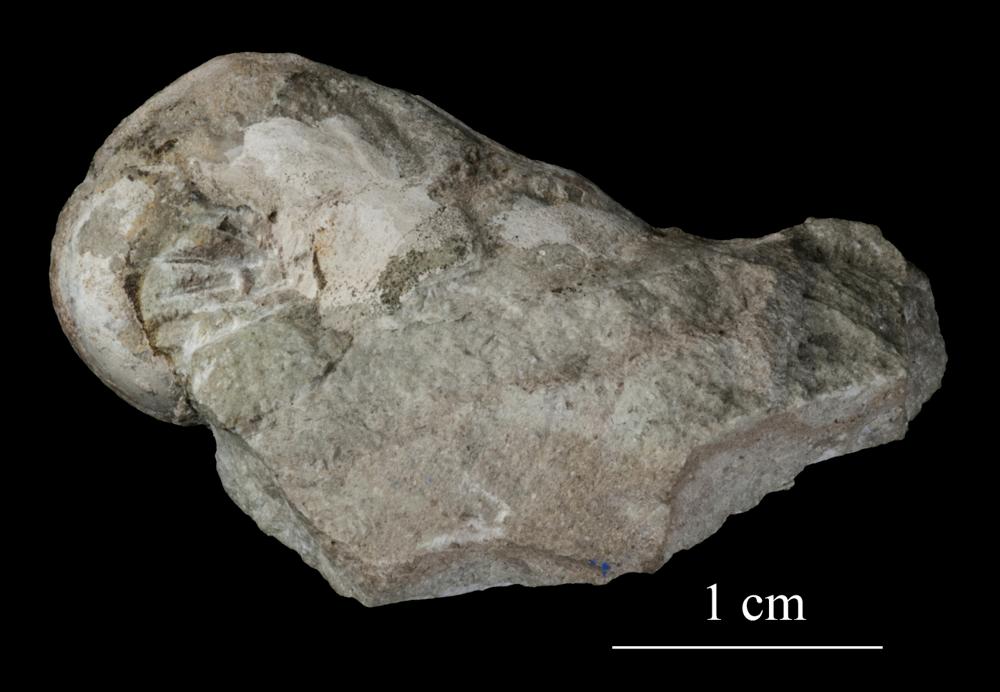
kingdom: Animalia
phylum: Mollusca
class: Gastropoda
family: Bucaniidae
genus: Salpingostoma
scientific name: Salpingostoma Bellerophon megalostoma
